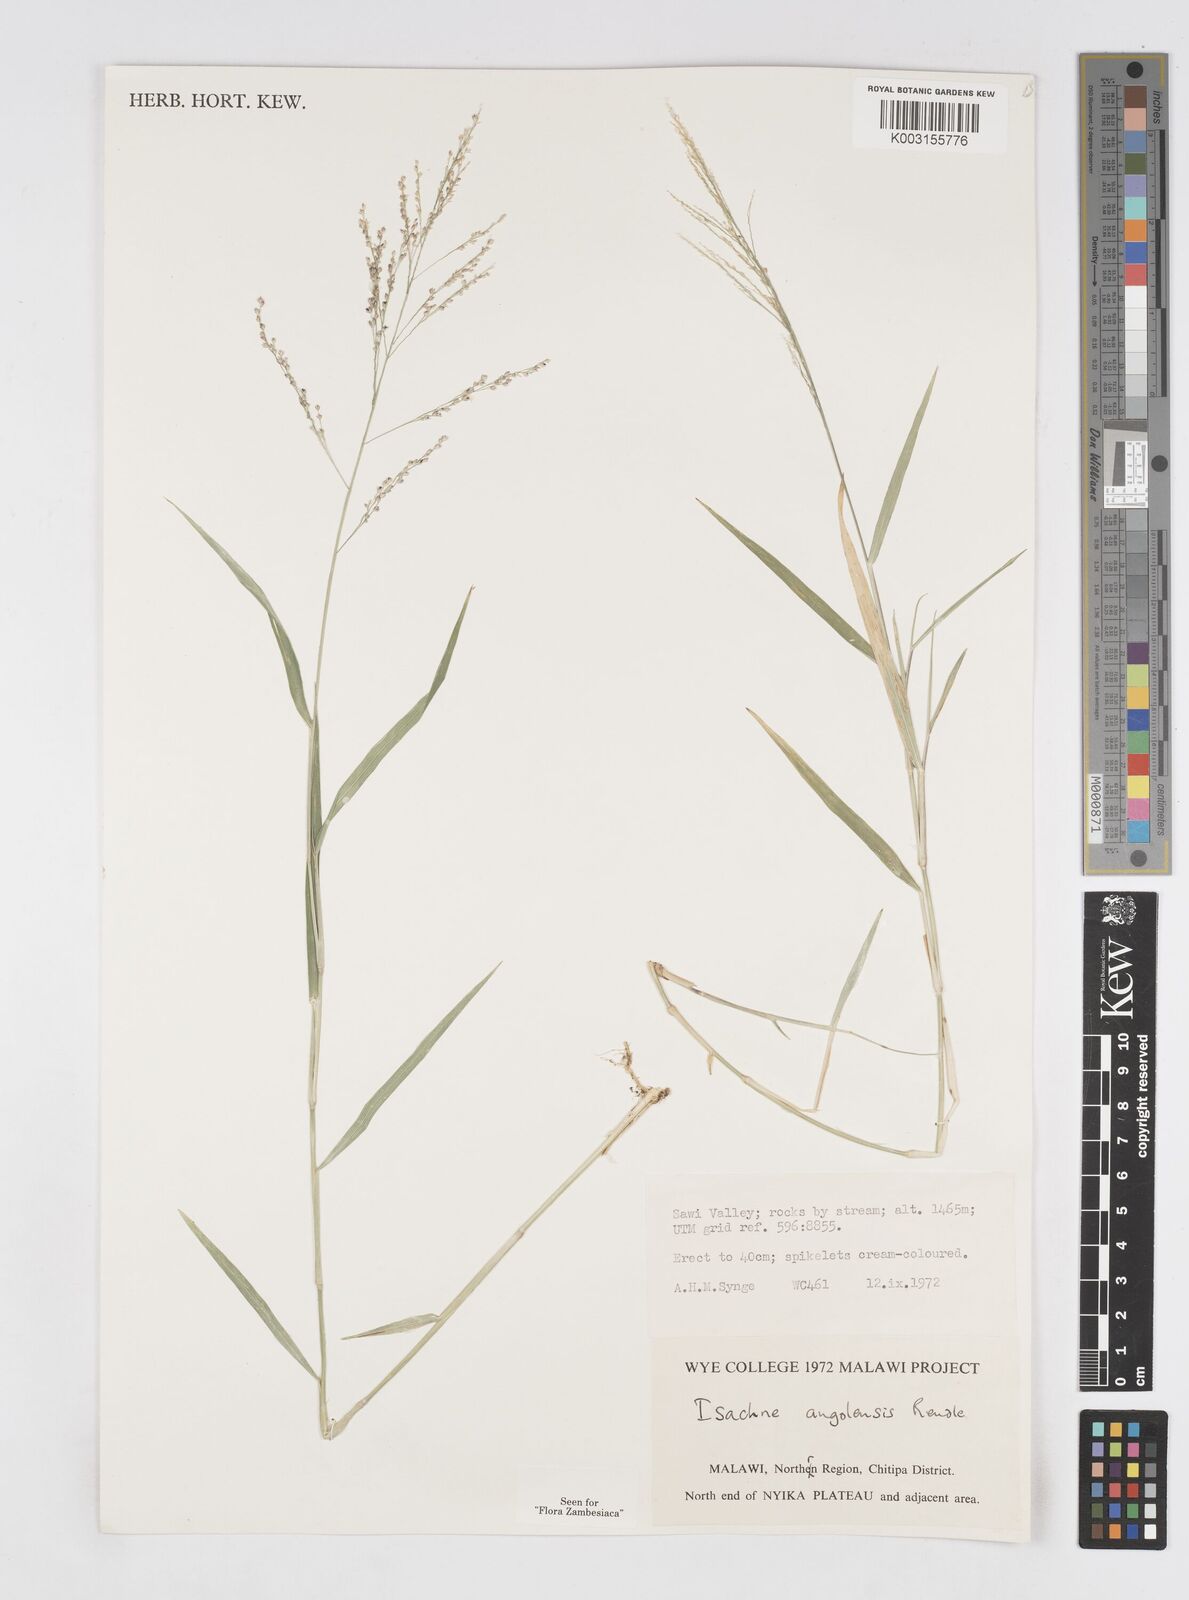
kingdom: Plantae
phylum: Tracheophyta
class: Liliopsida
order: Poales
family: Poaceae
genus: Isachne
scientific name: Isachne angolensis
